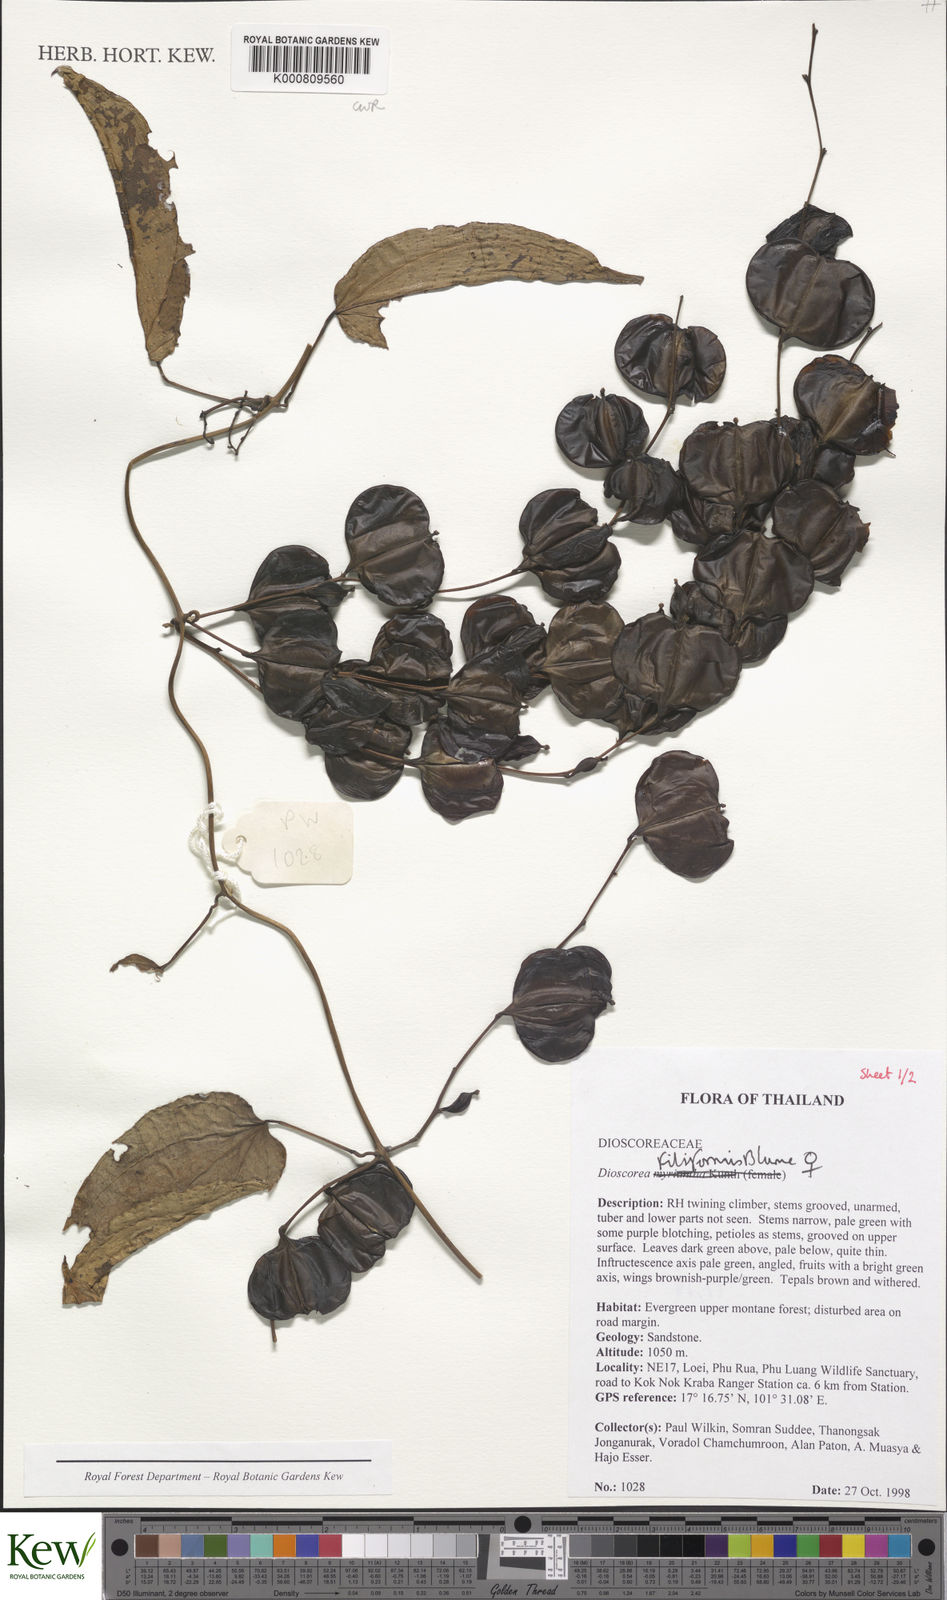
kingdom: Plantae
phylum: Tracheophyta
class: Liliopsida
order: Dioscoreales
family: Dioscoreaceae
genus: Dioscorea
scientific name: Dioscorea filiformis
